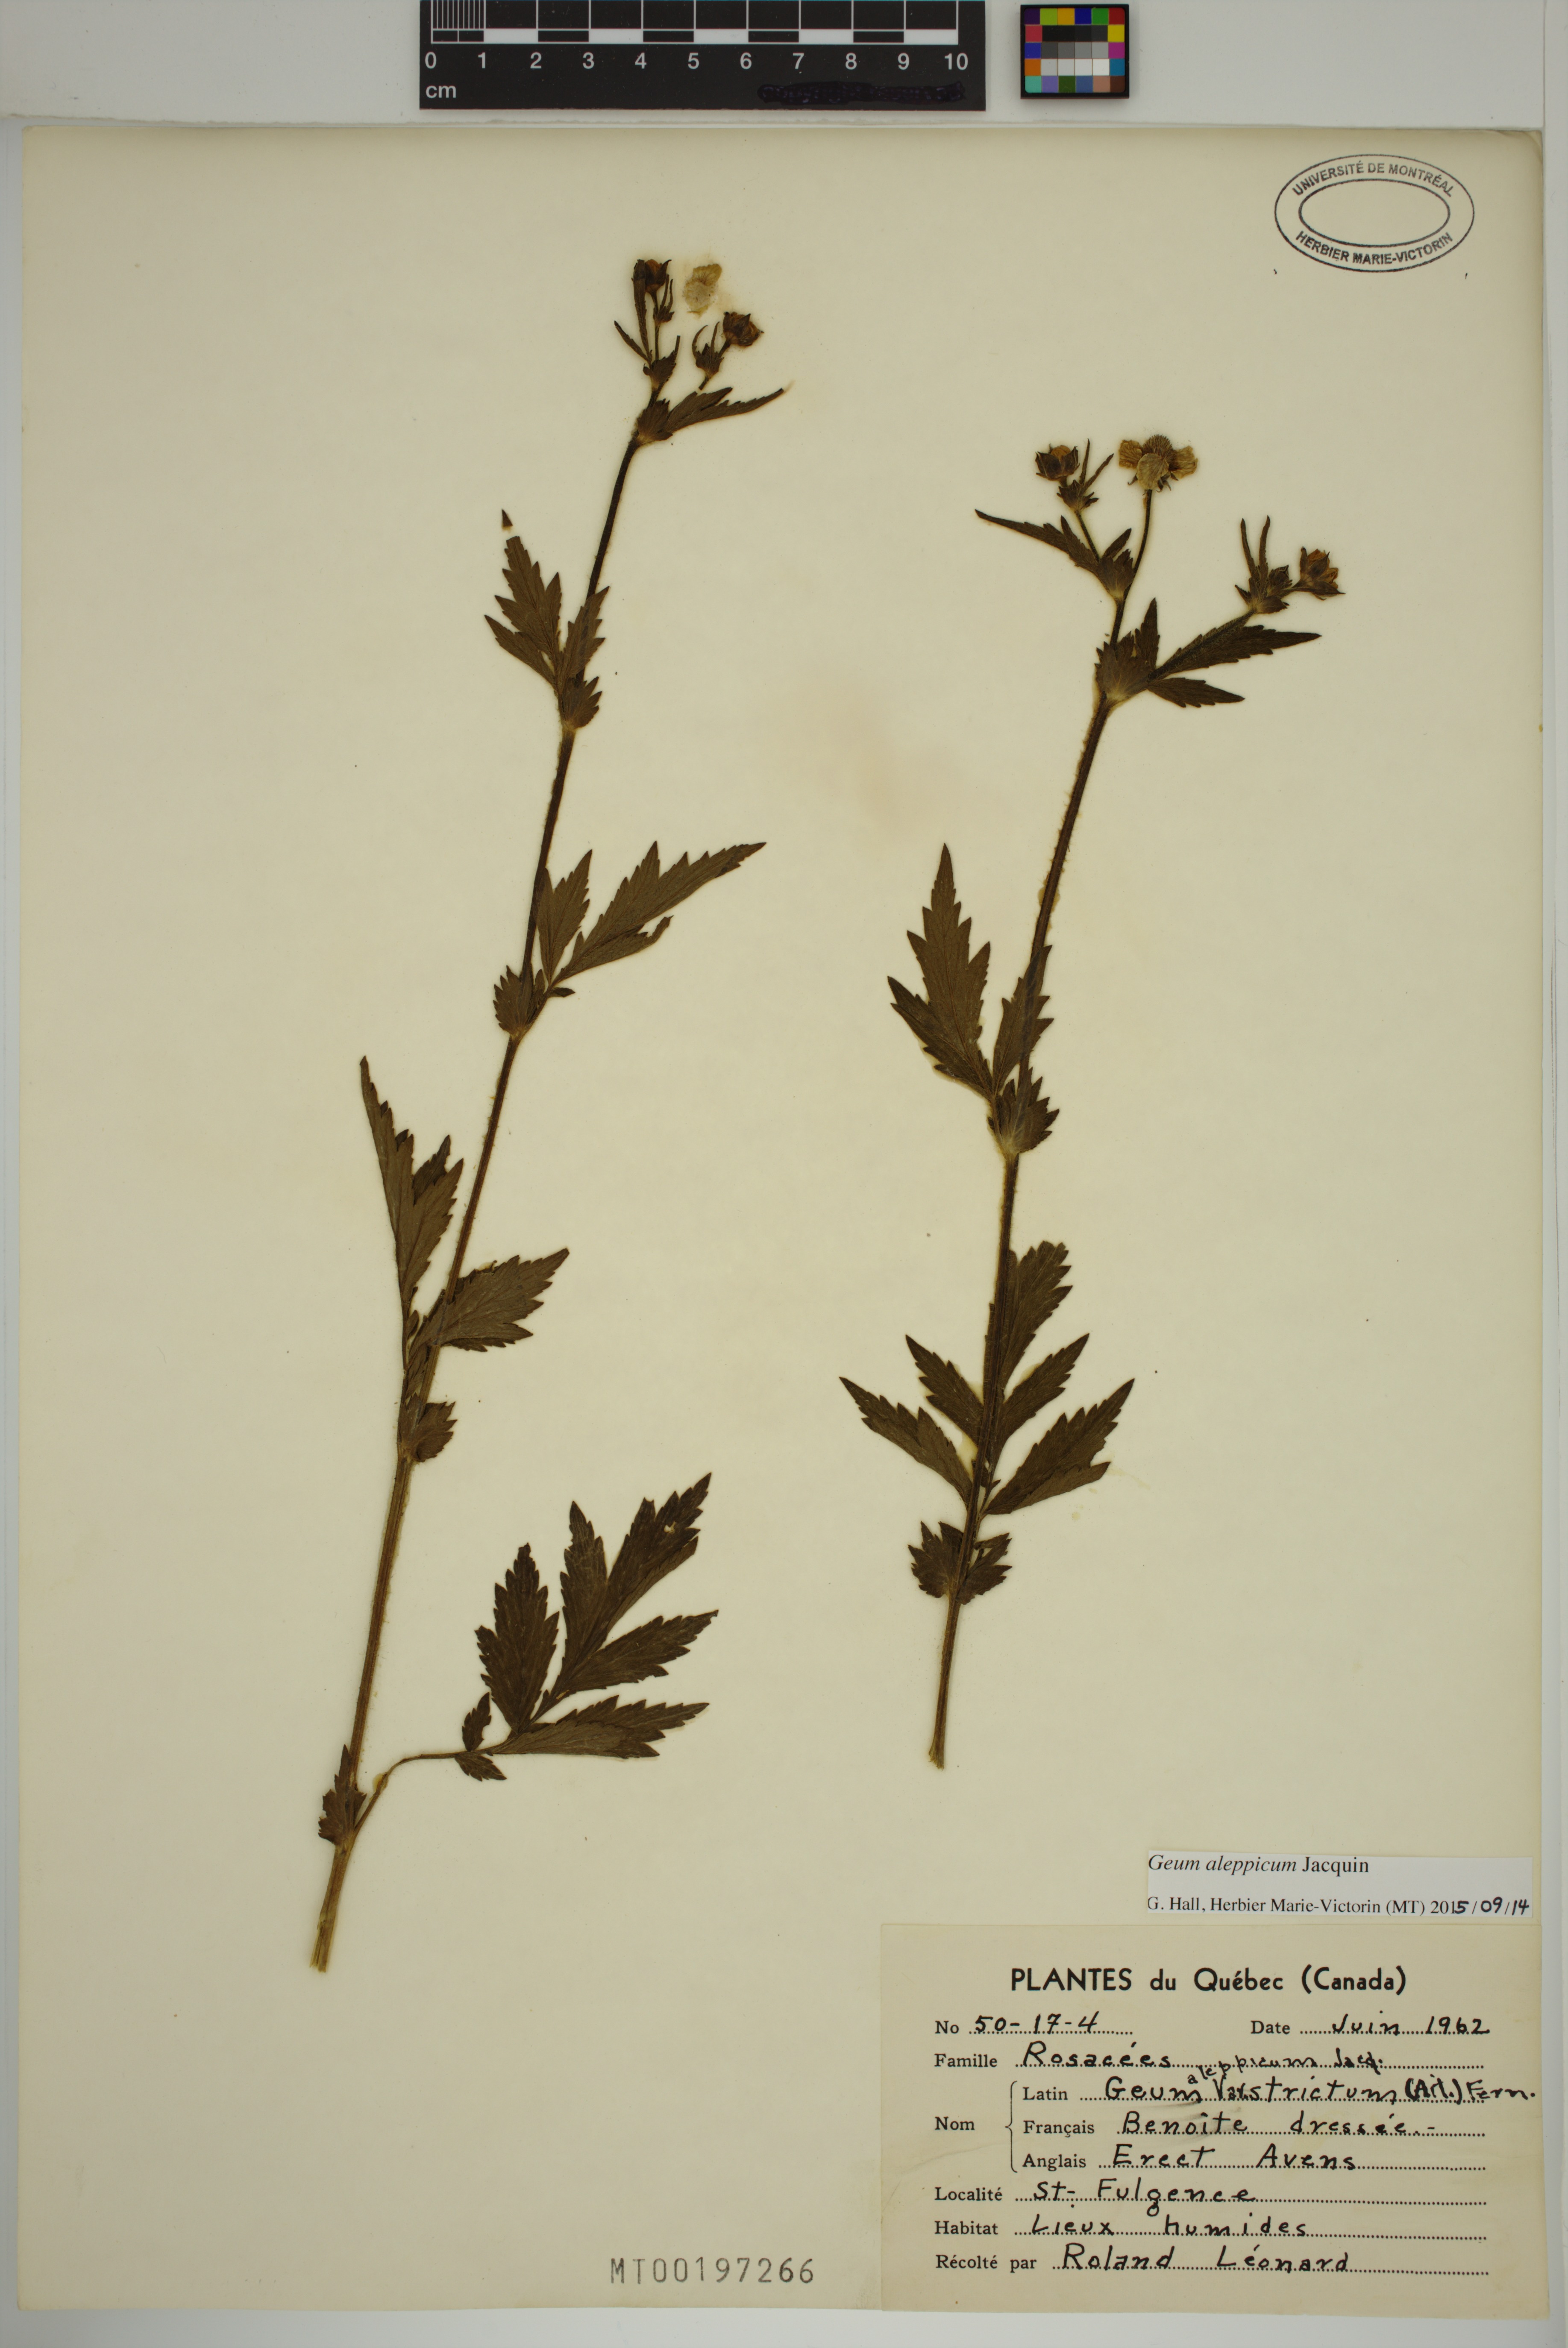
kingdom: Plantae
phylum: Tracheophyta
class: Magnoliopsida
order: Rosales
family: Rosaceae
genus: Geum
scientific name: Geum aleppicum
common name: Yellow avens
